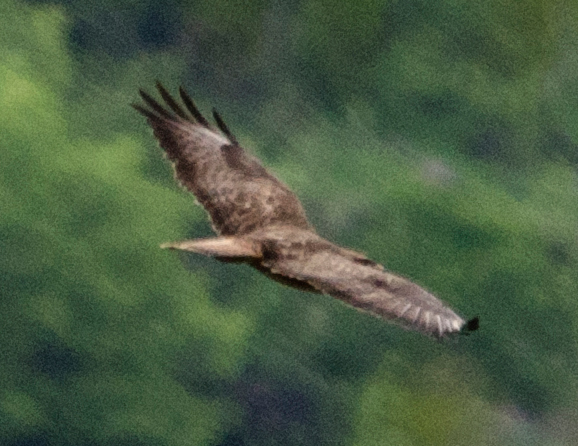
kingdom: Animalia
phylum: Chordata
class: Aves
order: Accipitriformes
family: Accipitridae
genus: Buteo
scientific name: Buteo buteo
